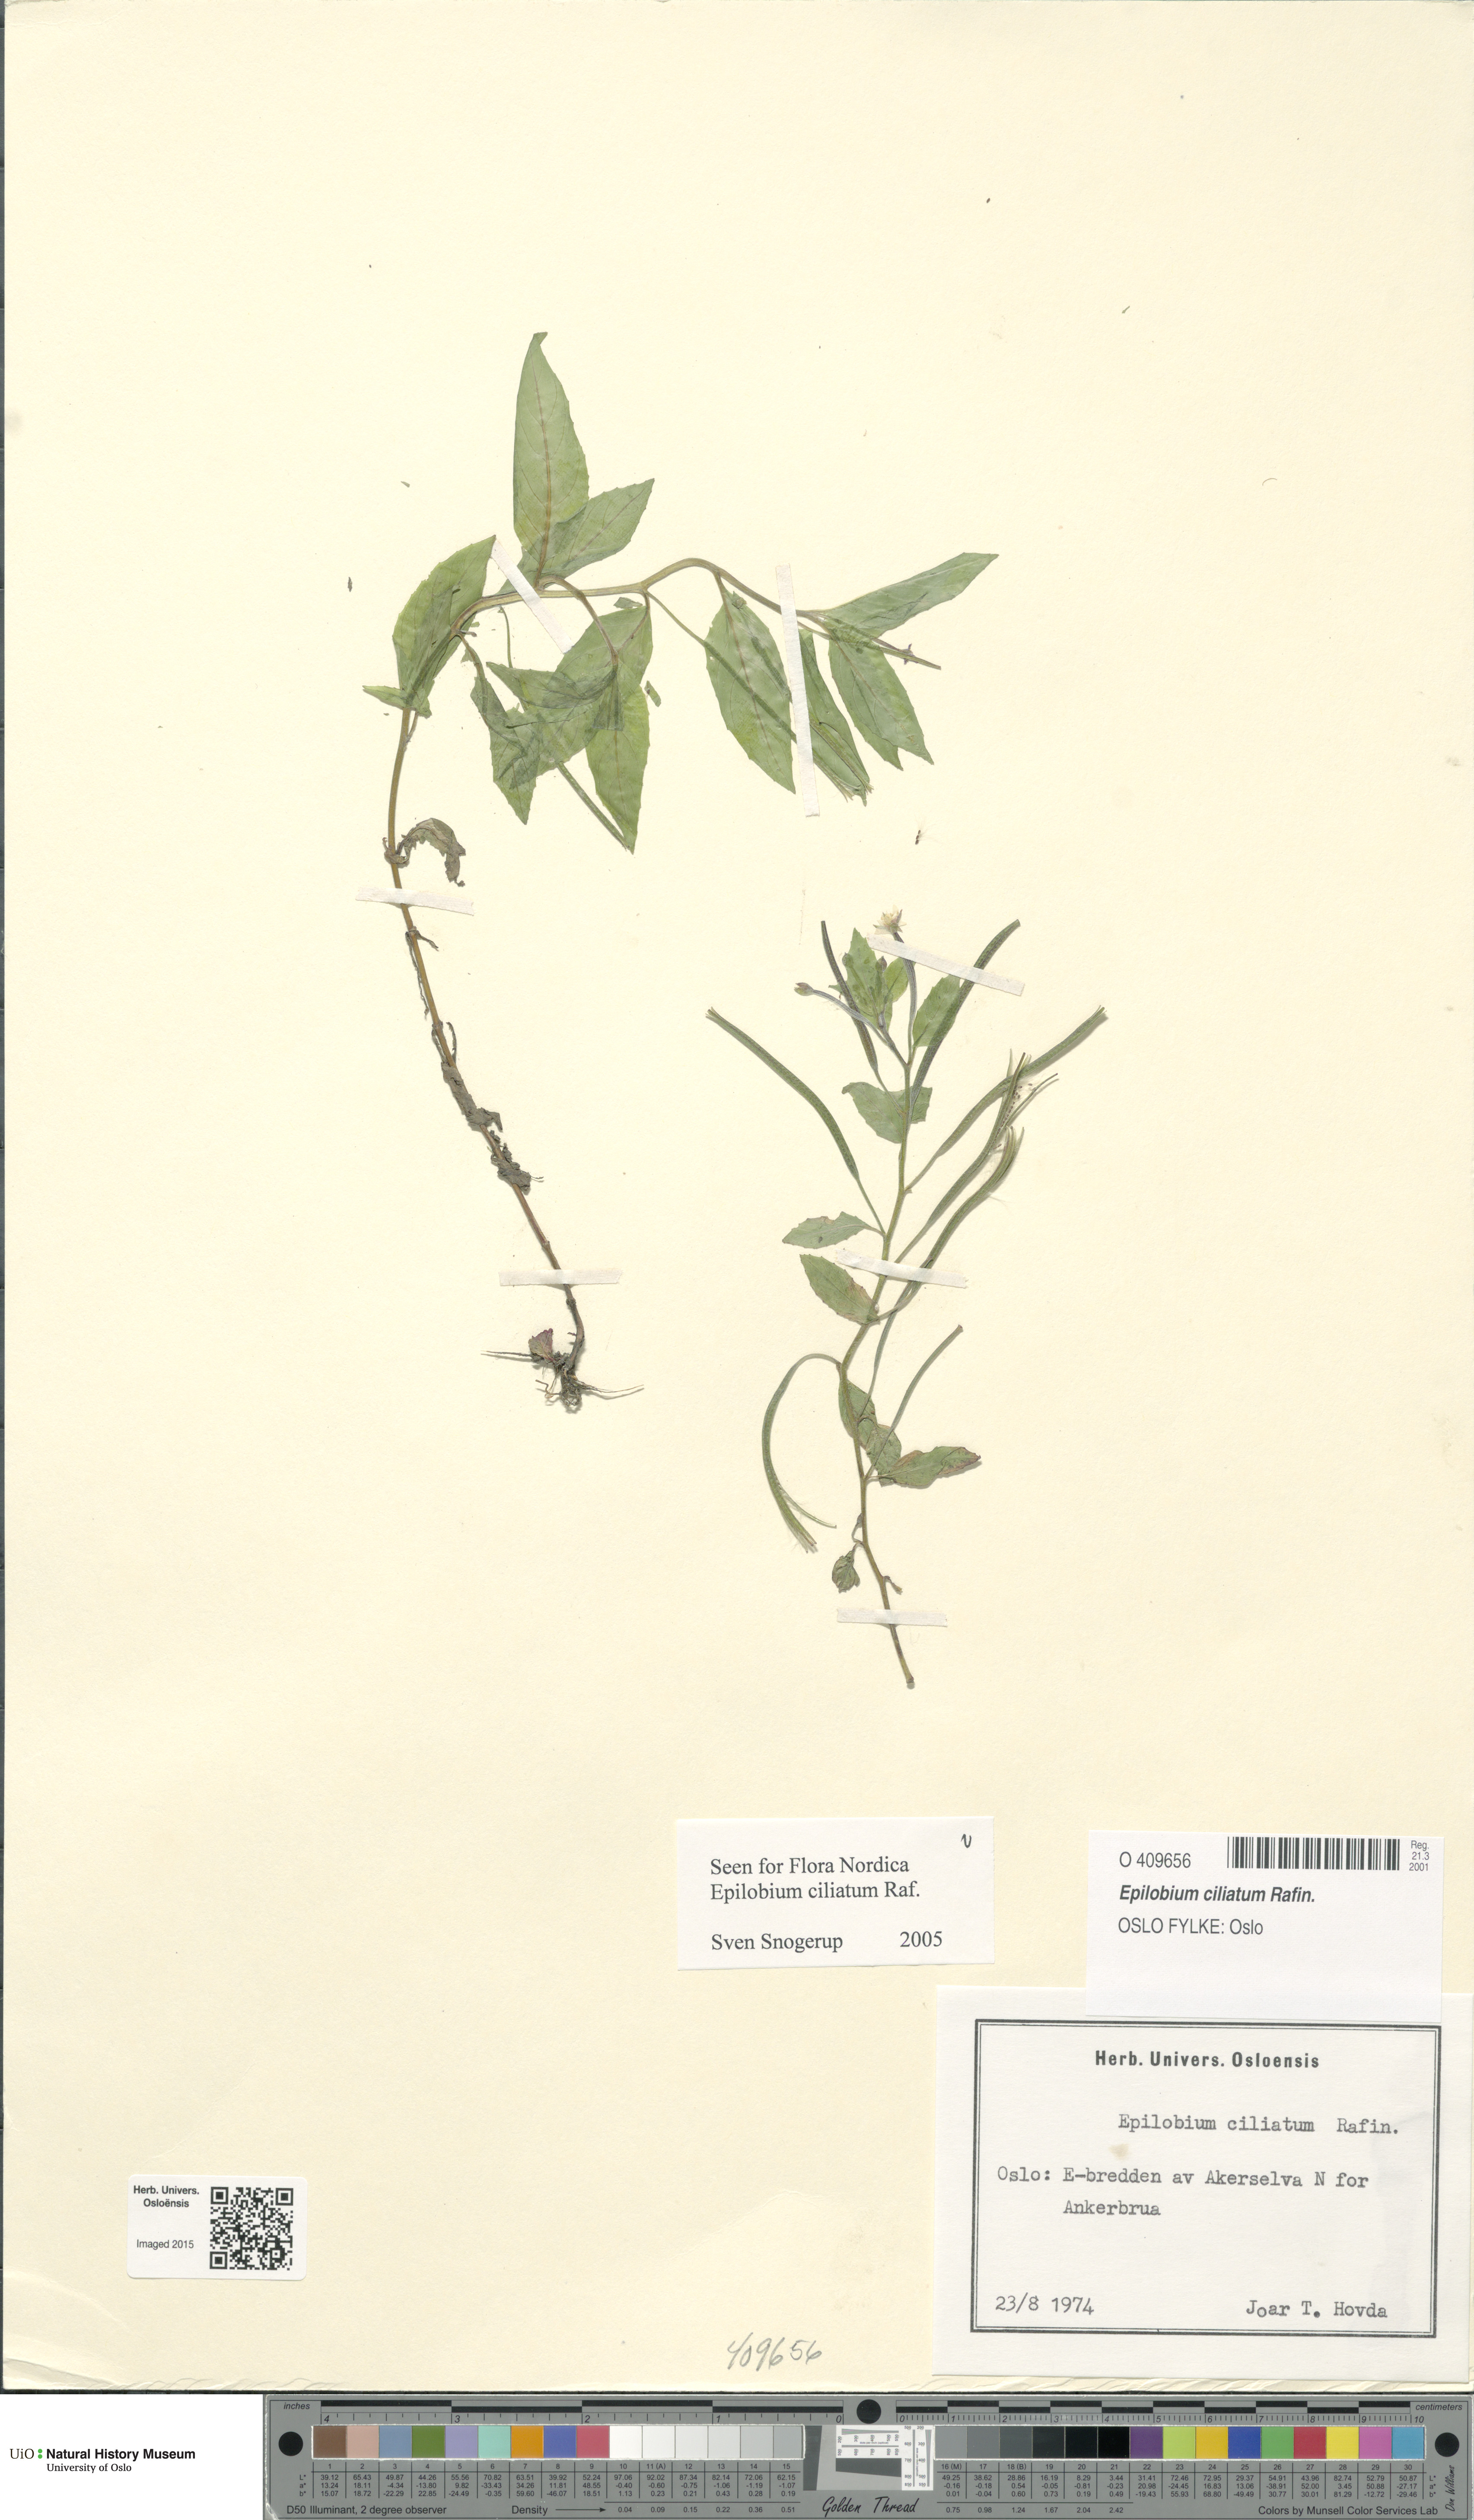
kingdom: Plantae
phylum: Tracheophyta
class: Magnoliopsida
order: Myrtales
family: Onagraceae
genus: Epilobium
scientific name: Epilobium ciliatum
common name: American willowherb
